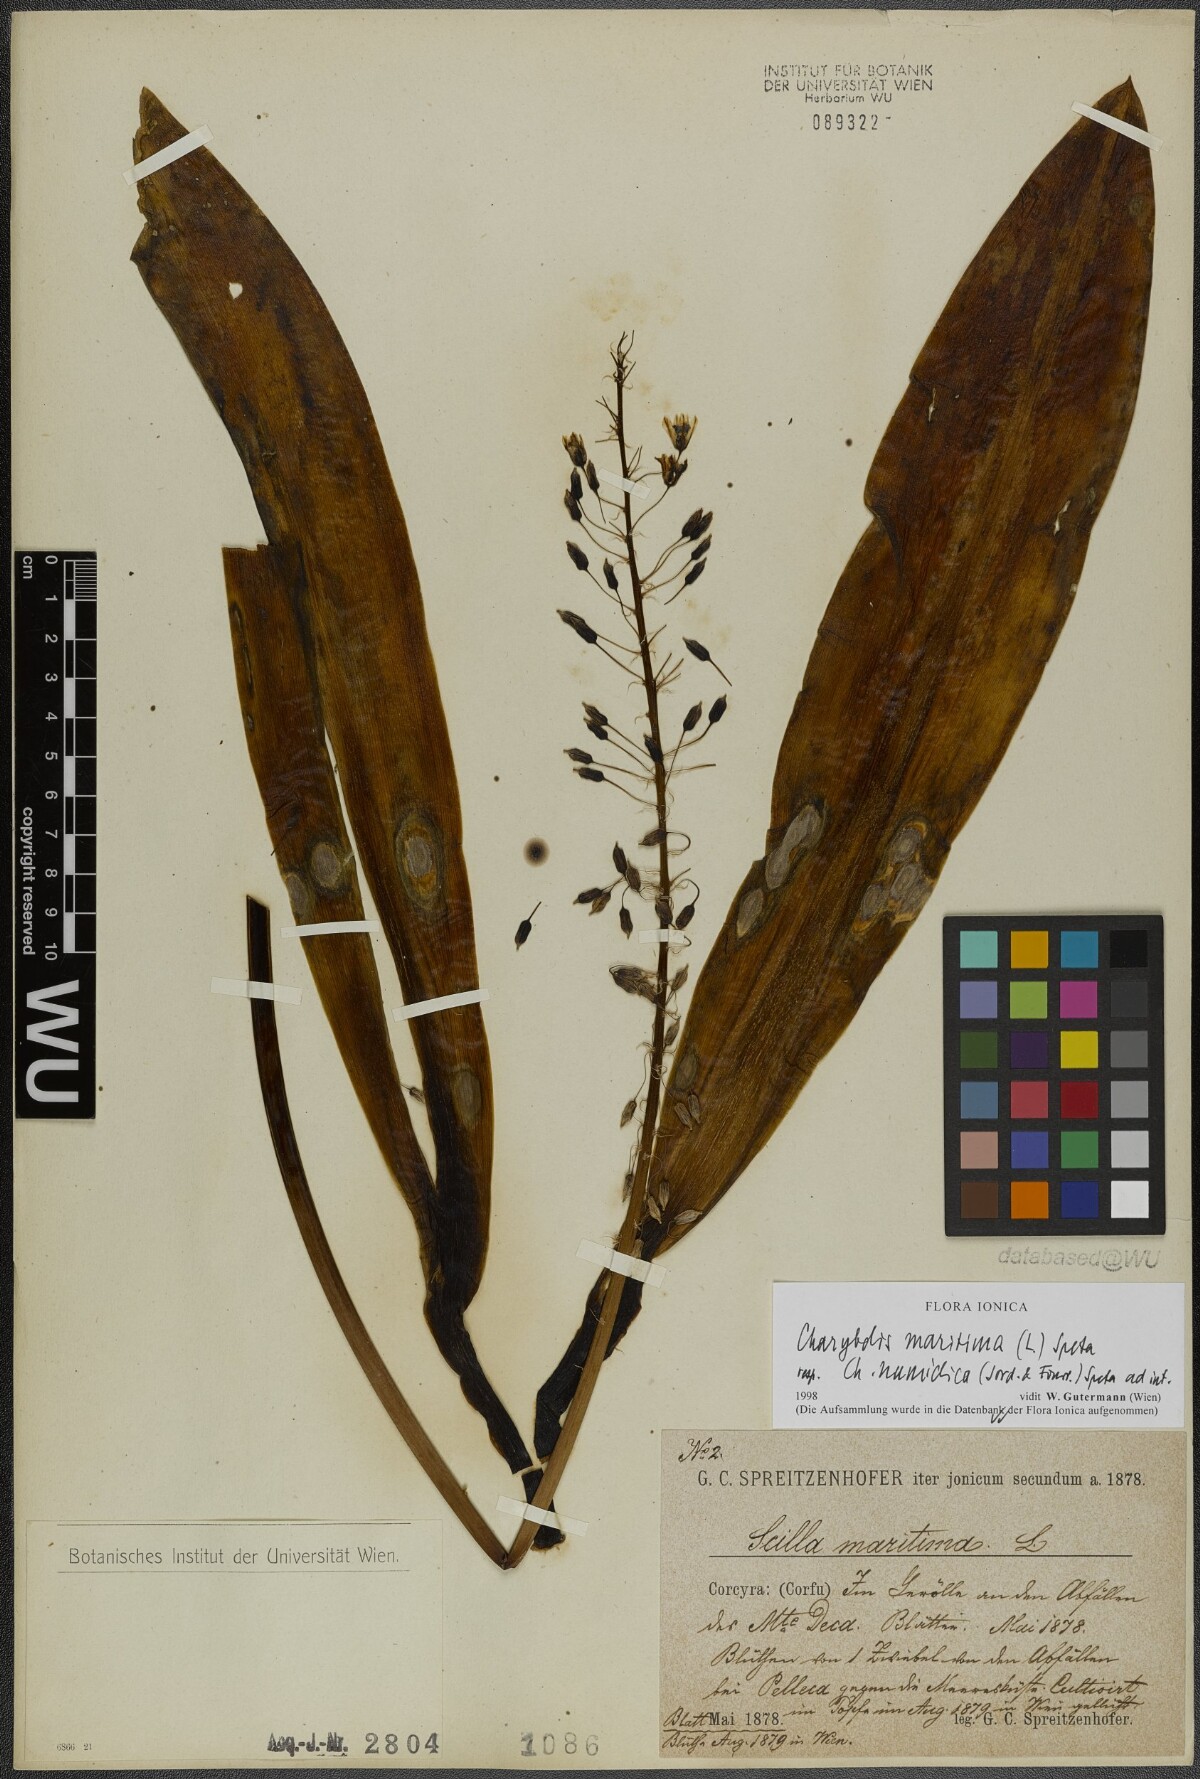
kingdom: Plantae
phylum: Tracheophyta
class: Liliopsida
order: Asparagales
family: Asparagaceae
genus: Drimia
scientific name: Drimia maritima
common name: Maritime squill
